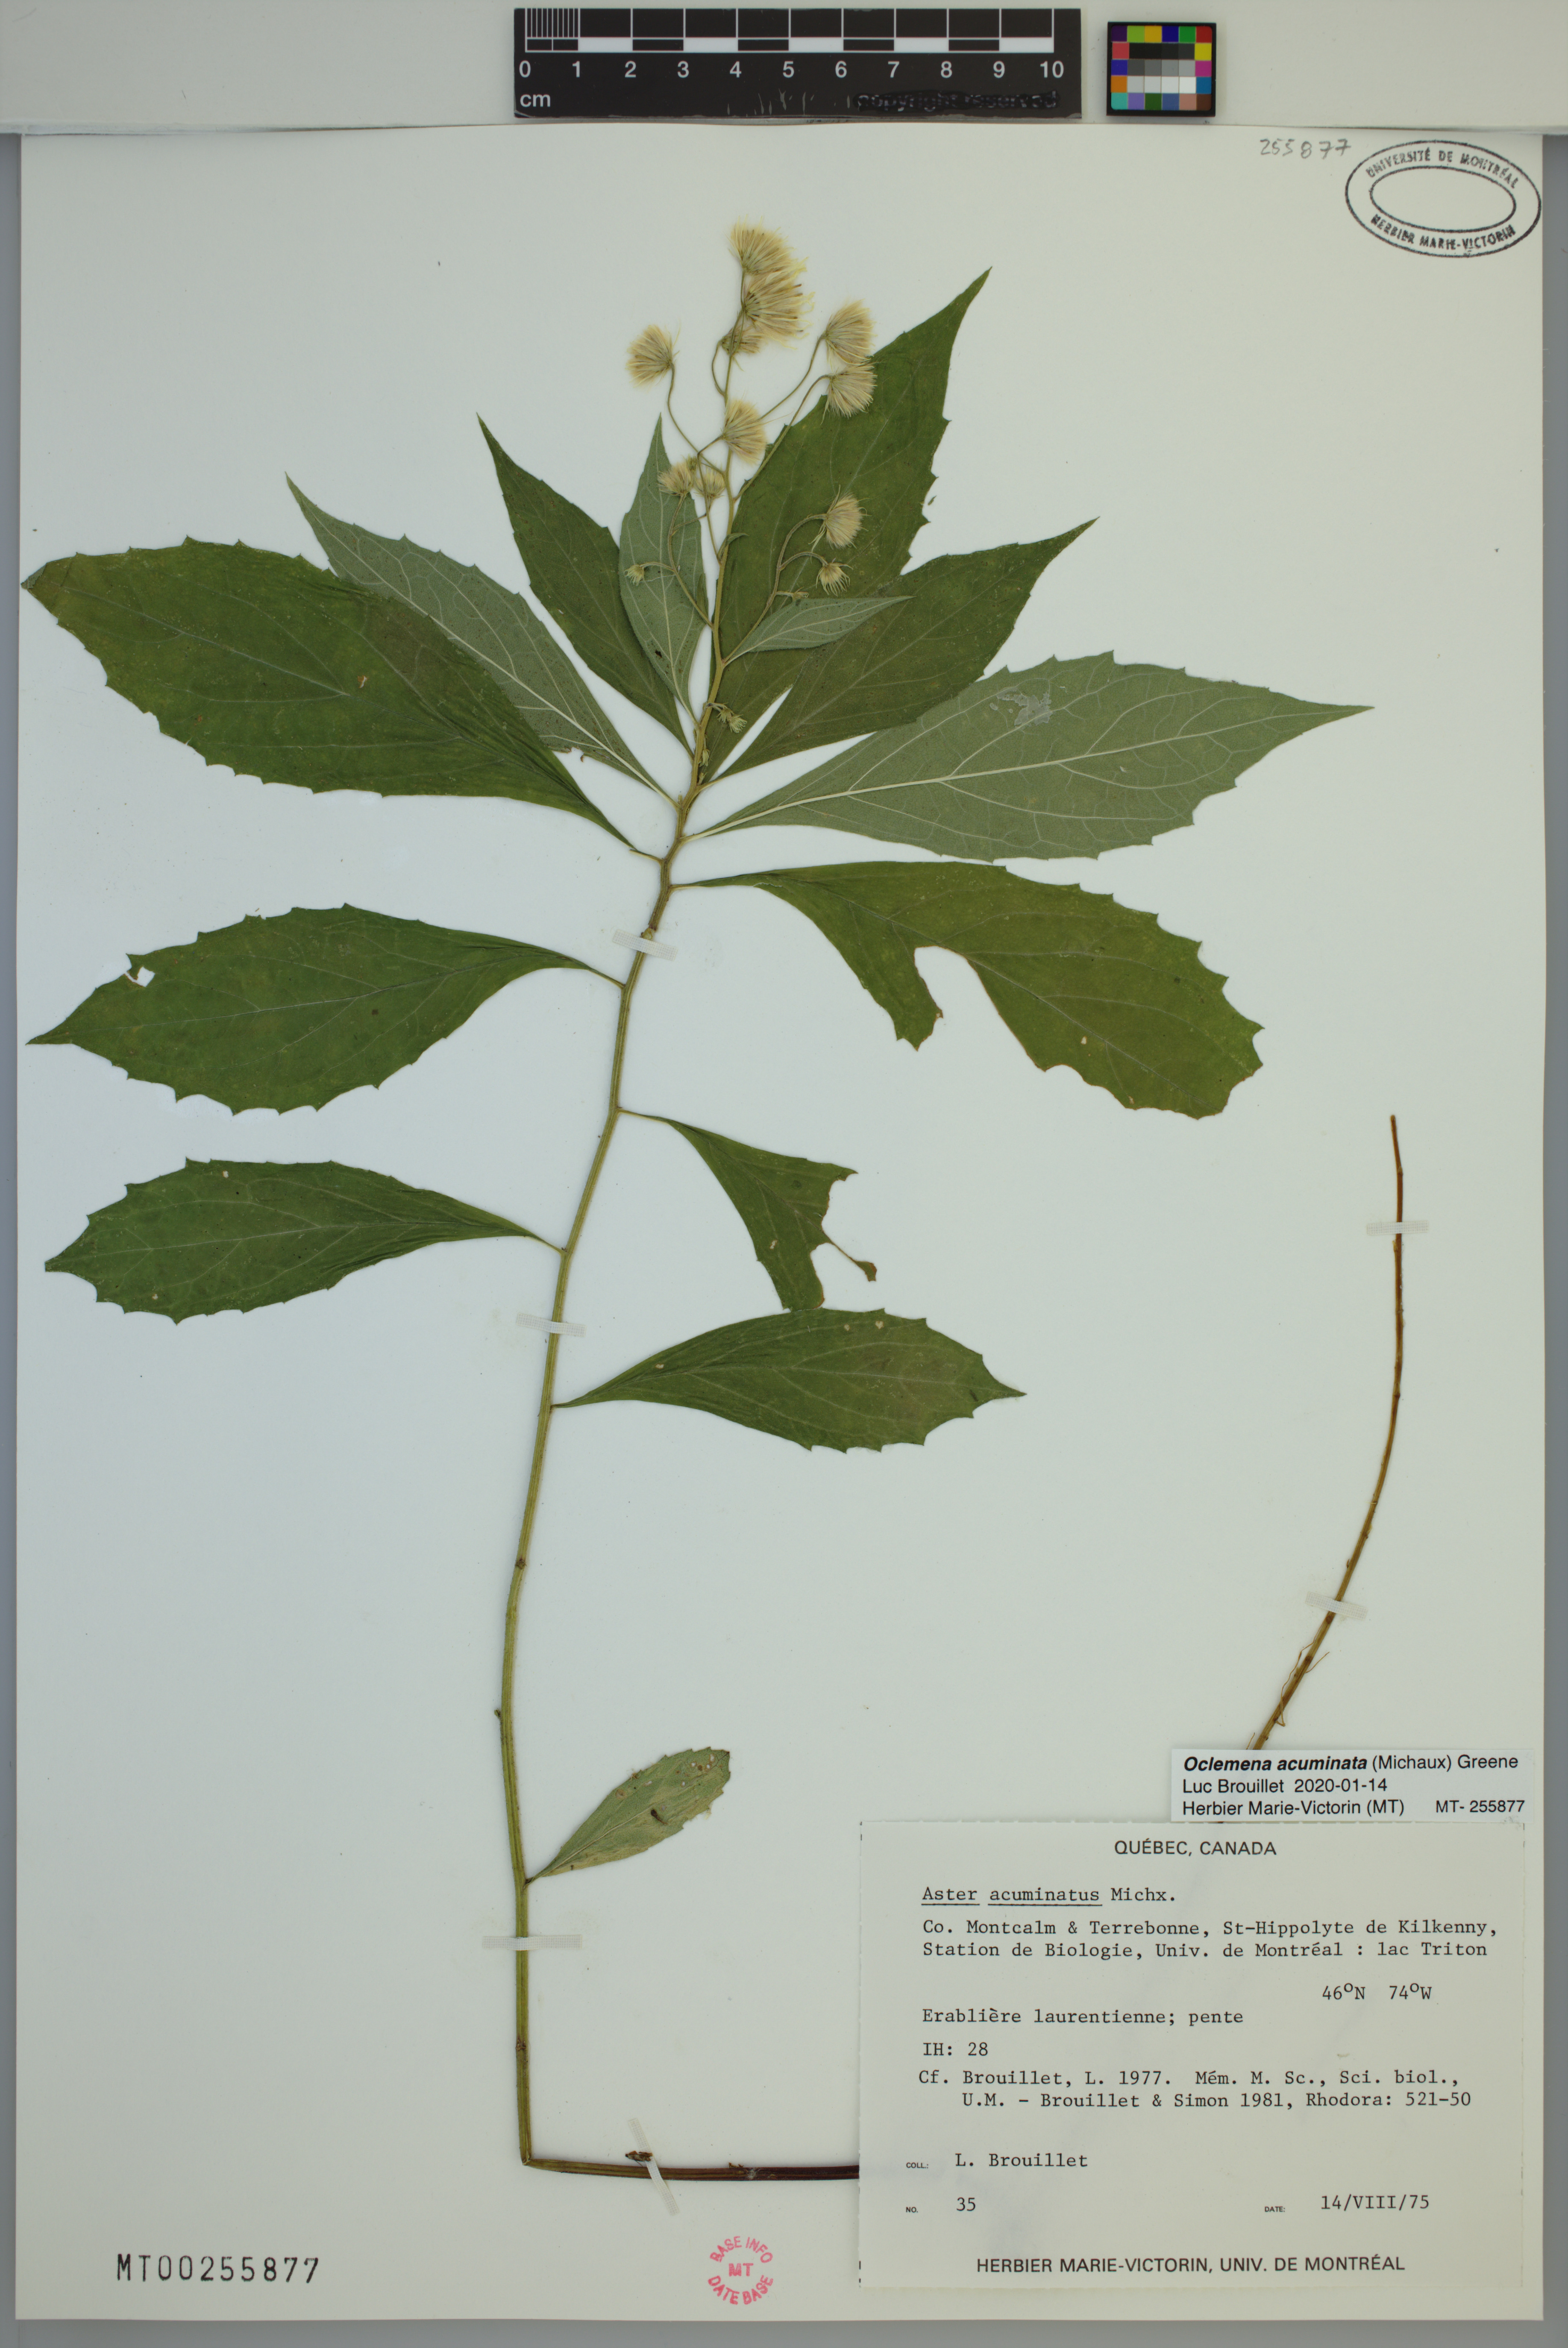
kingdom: Plantae
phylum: Tracheophyta
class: Magnoliopsida
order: Asterales
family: Asteraceae
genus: Oclemena
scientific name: Oclemena acuminata
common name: Mountain aster
